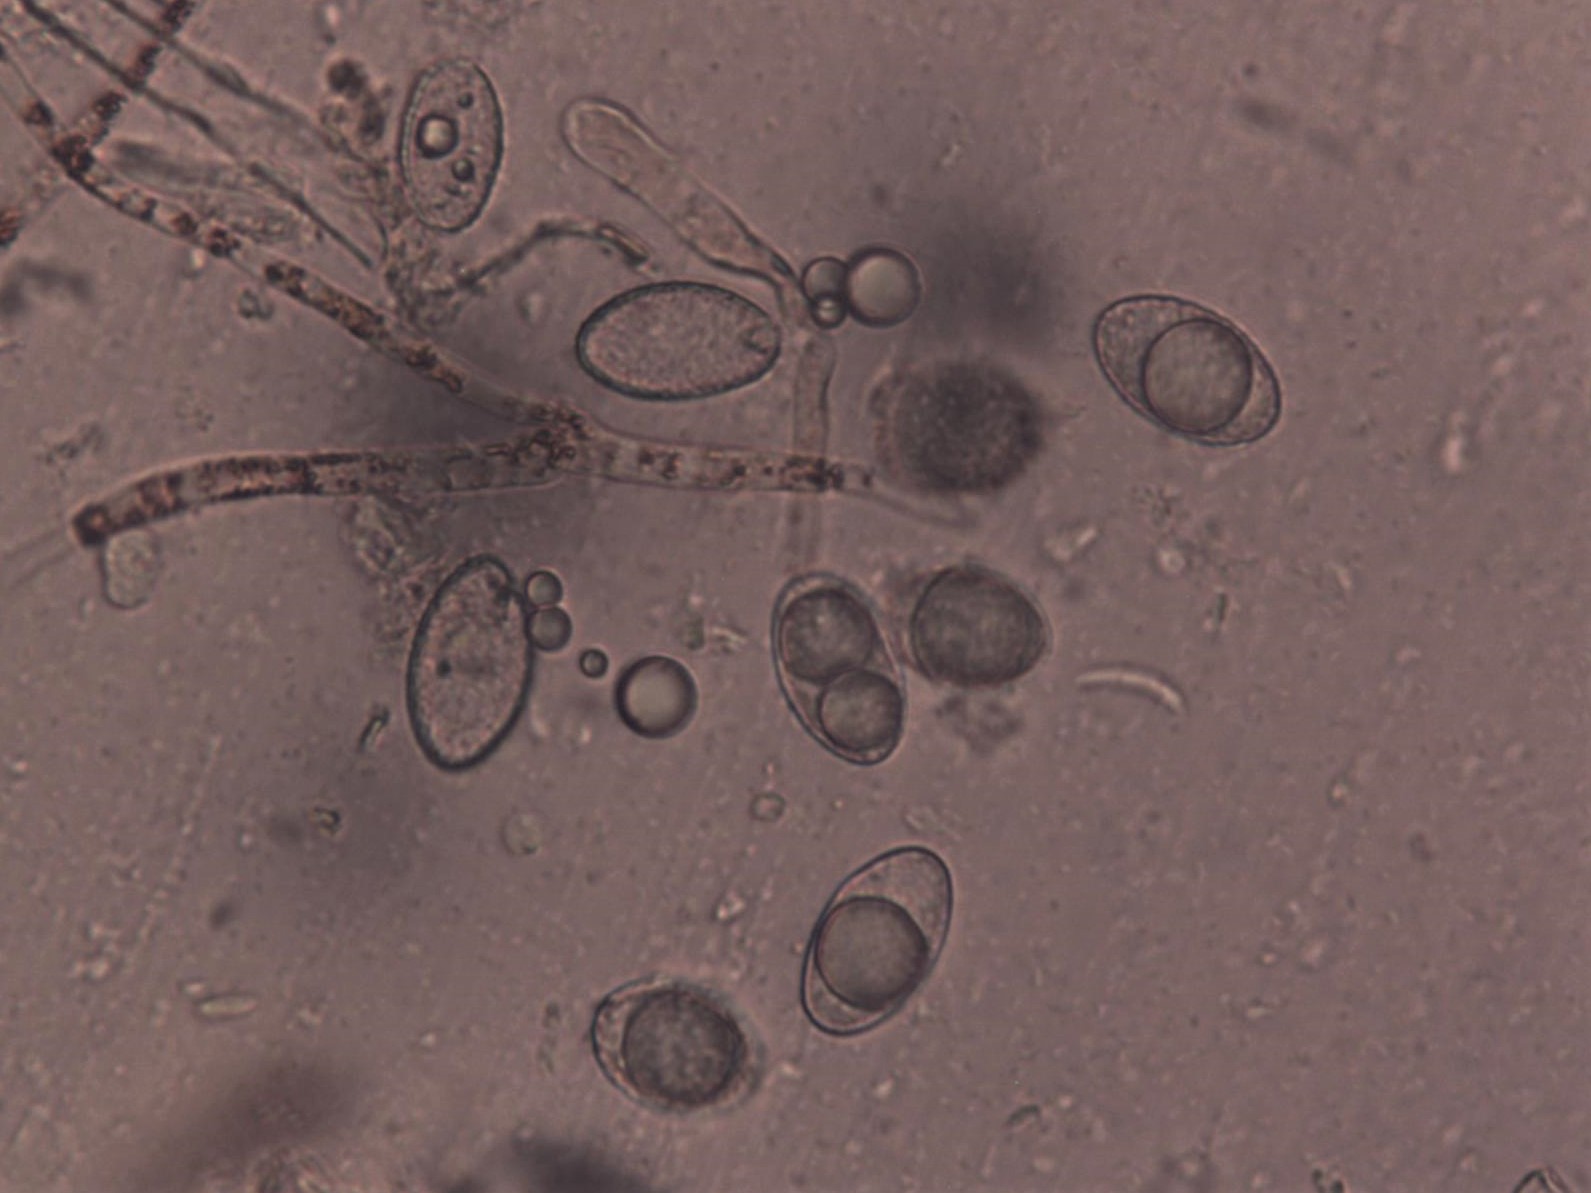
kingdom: Fungi
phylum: Ascomycota
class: Pezizomycetes
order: Pezizales
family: Pyronemataceae
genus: Neottiella
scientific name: Neottiella rutilans
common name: jomfruhår-mosbæger
